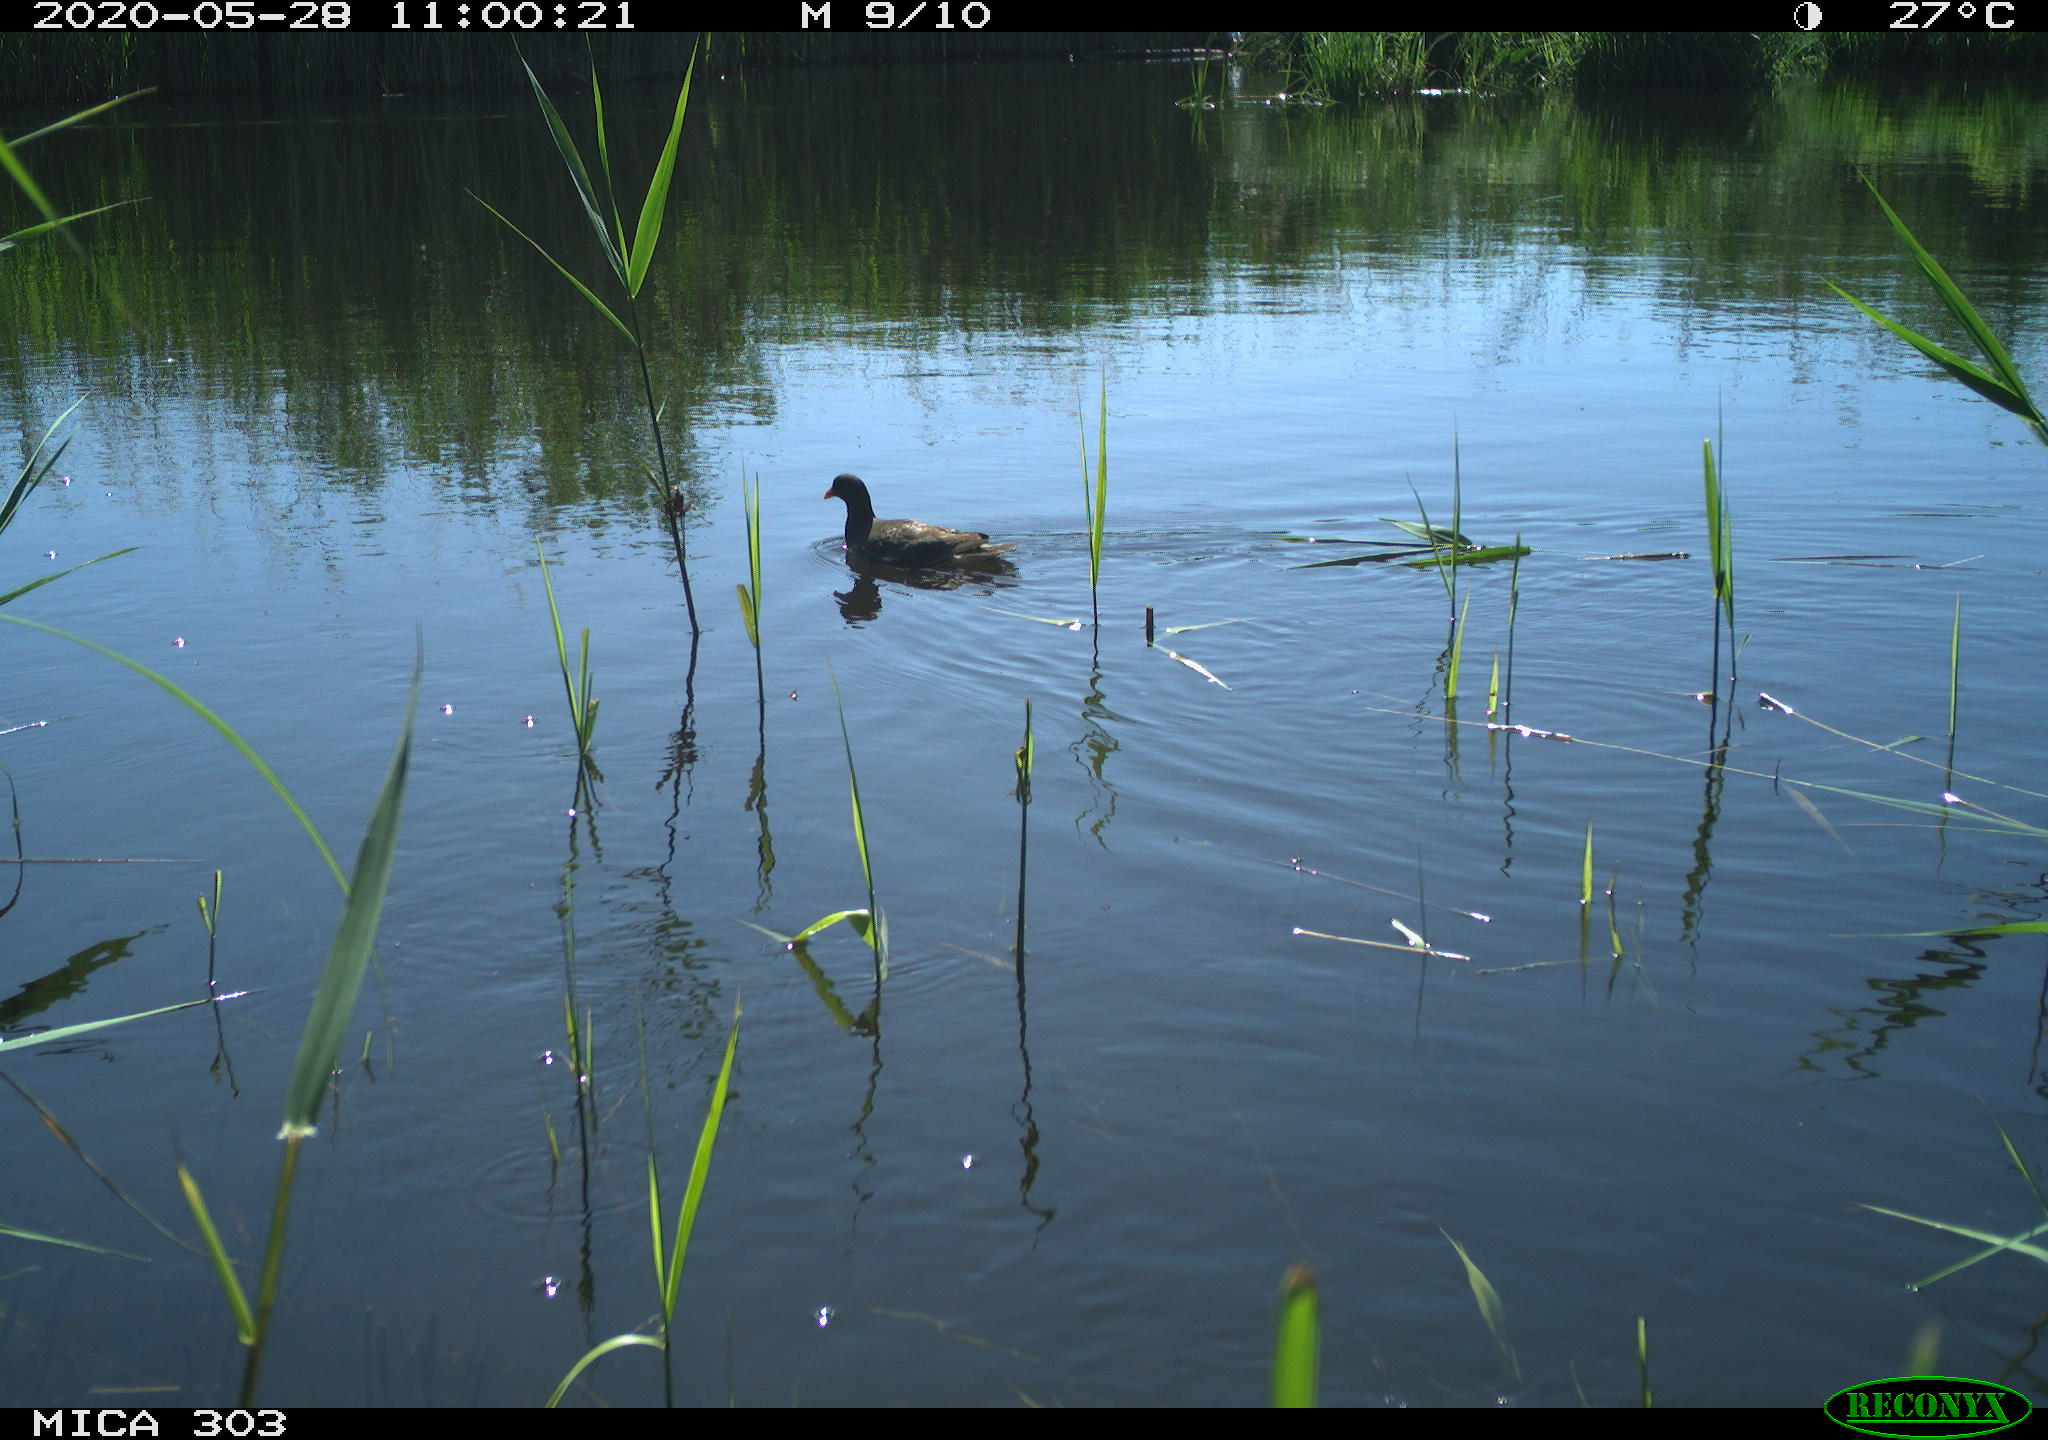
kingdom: Animalia
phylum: Chordata
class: Aves
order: Gruiformes
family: Rallidae
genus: Gallinula
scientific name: Gallinula chloropus
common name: Common moorhen
